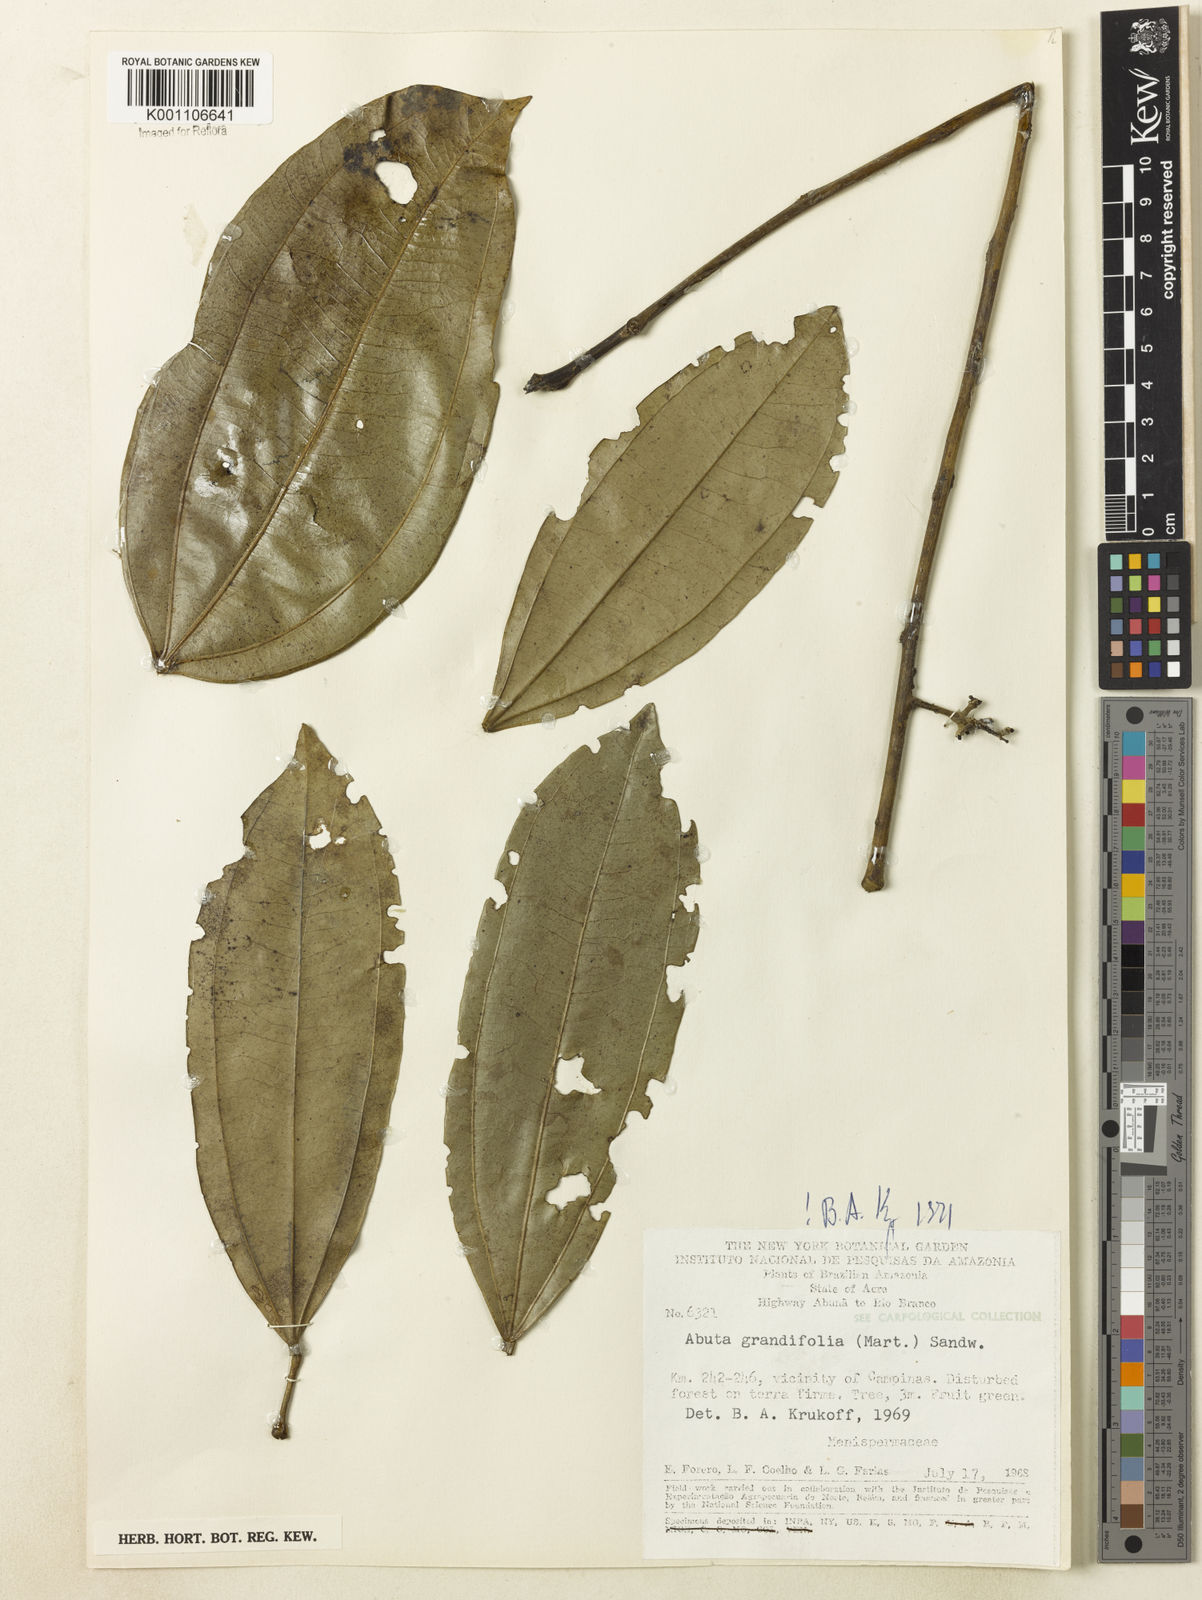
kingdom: Plantae
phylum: Tracheophyta
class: Magnoliopsida
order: Ranunculales
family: Menispermaceae
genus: Abuta
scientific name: Abuta grandifolia
